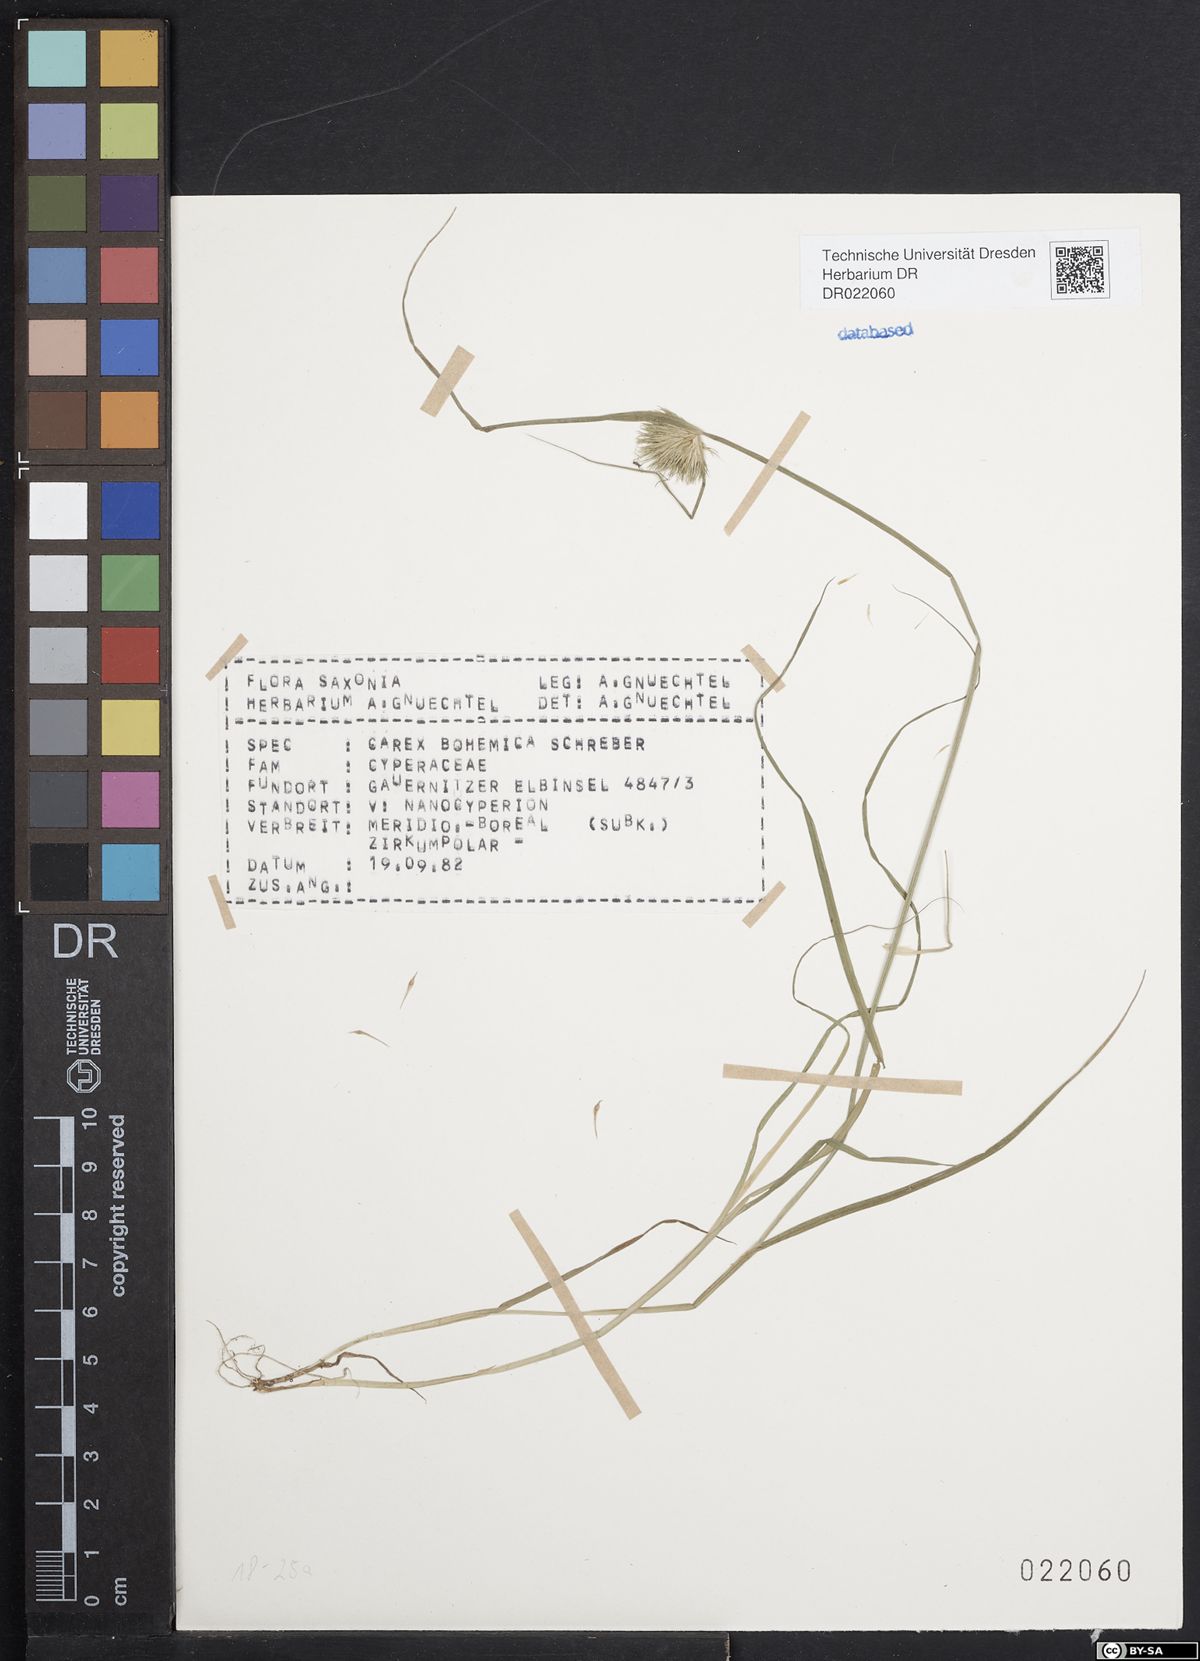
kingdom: Plantae
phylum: Tracheophyta
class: Liliopsida
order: Poales
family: Cyperaceae
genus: Carex
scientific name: Carex bohemica
